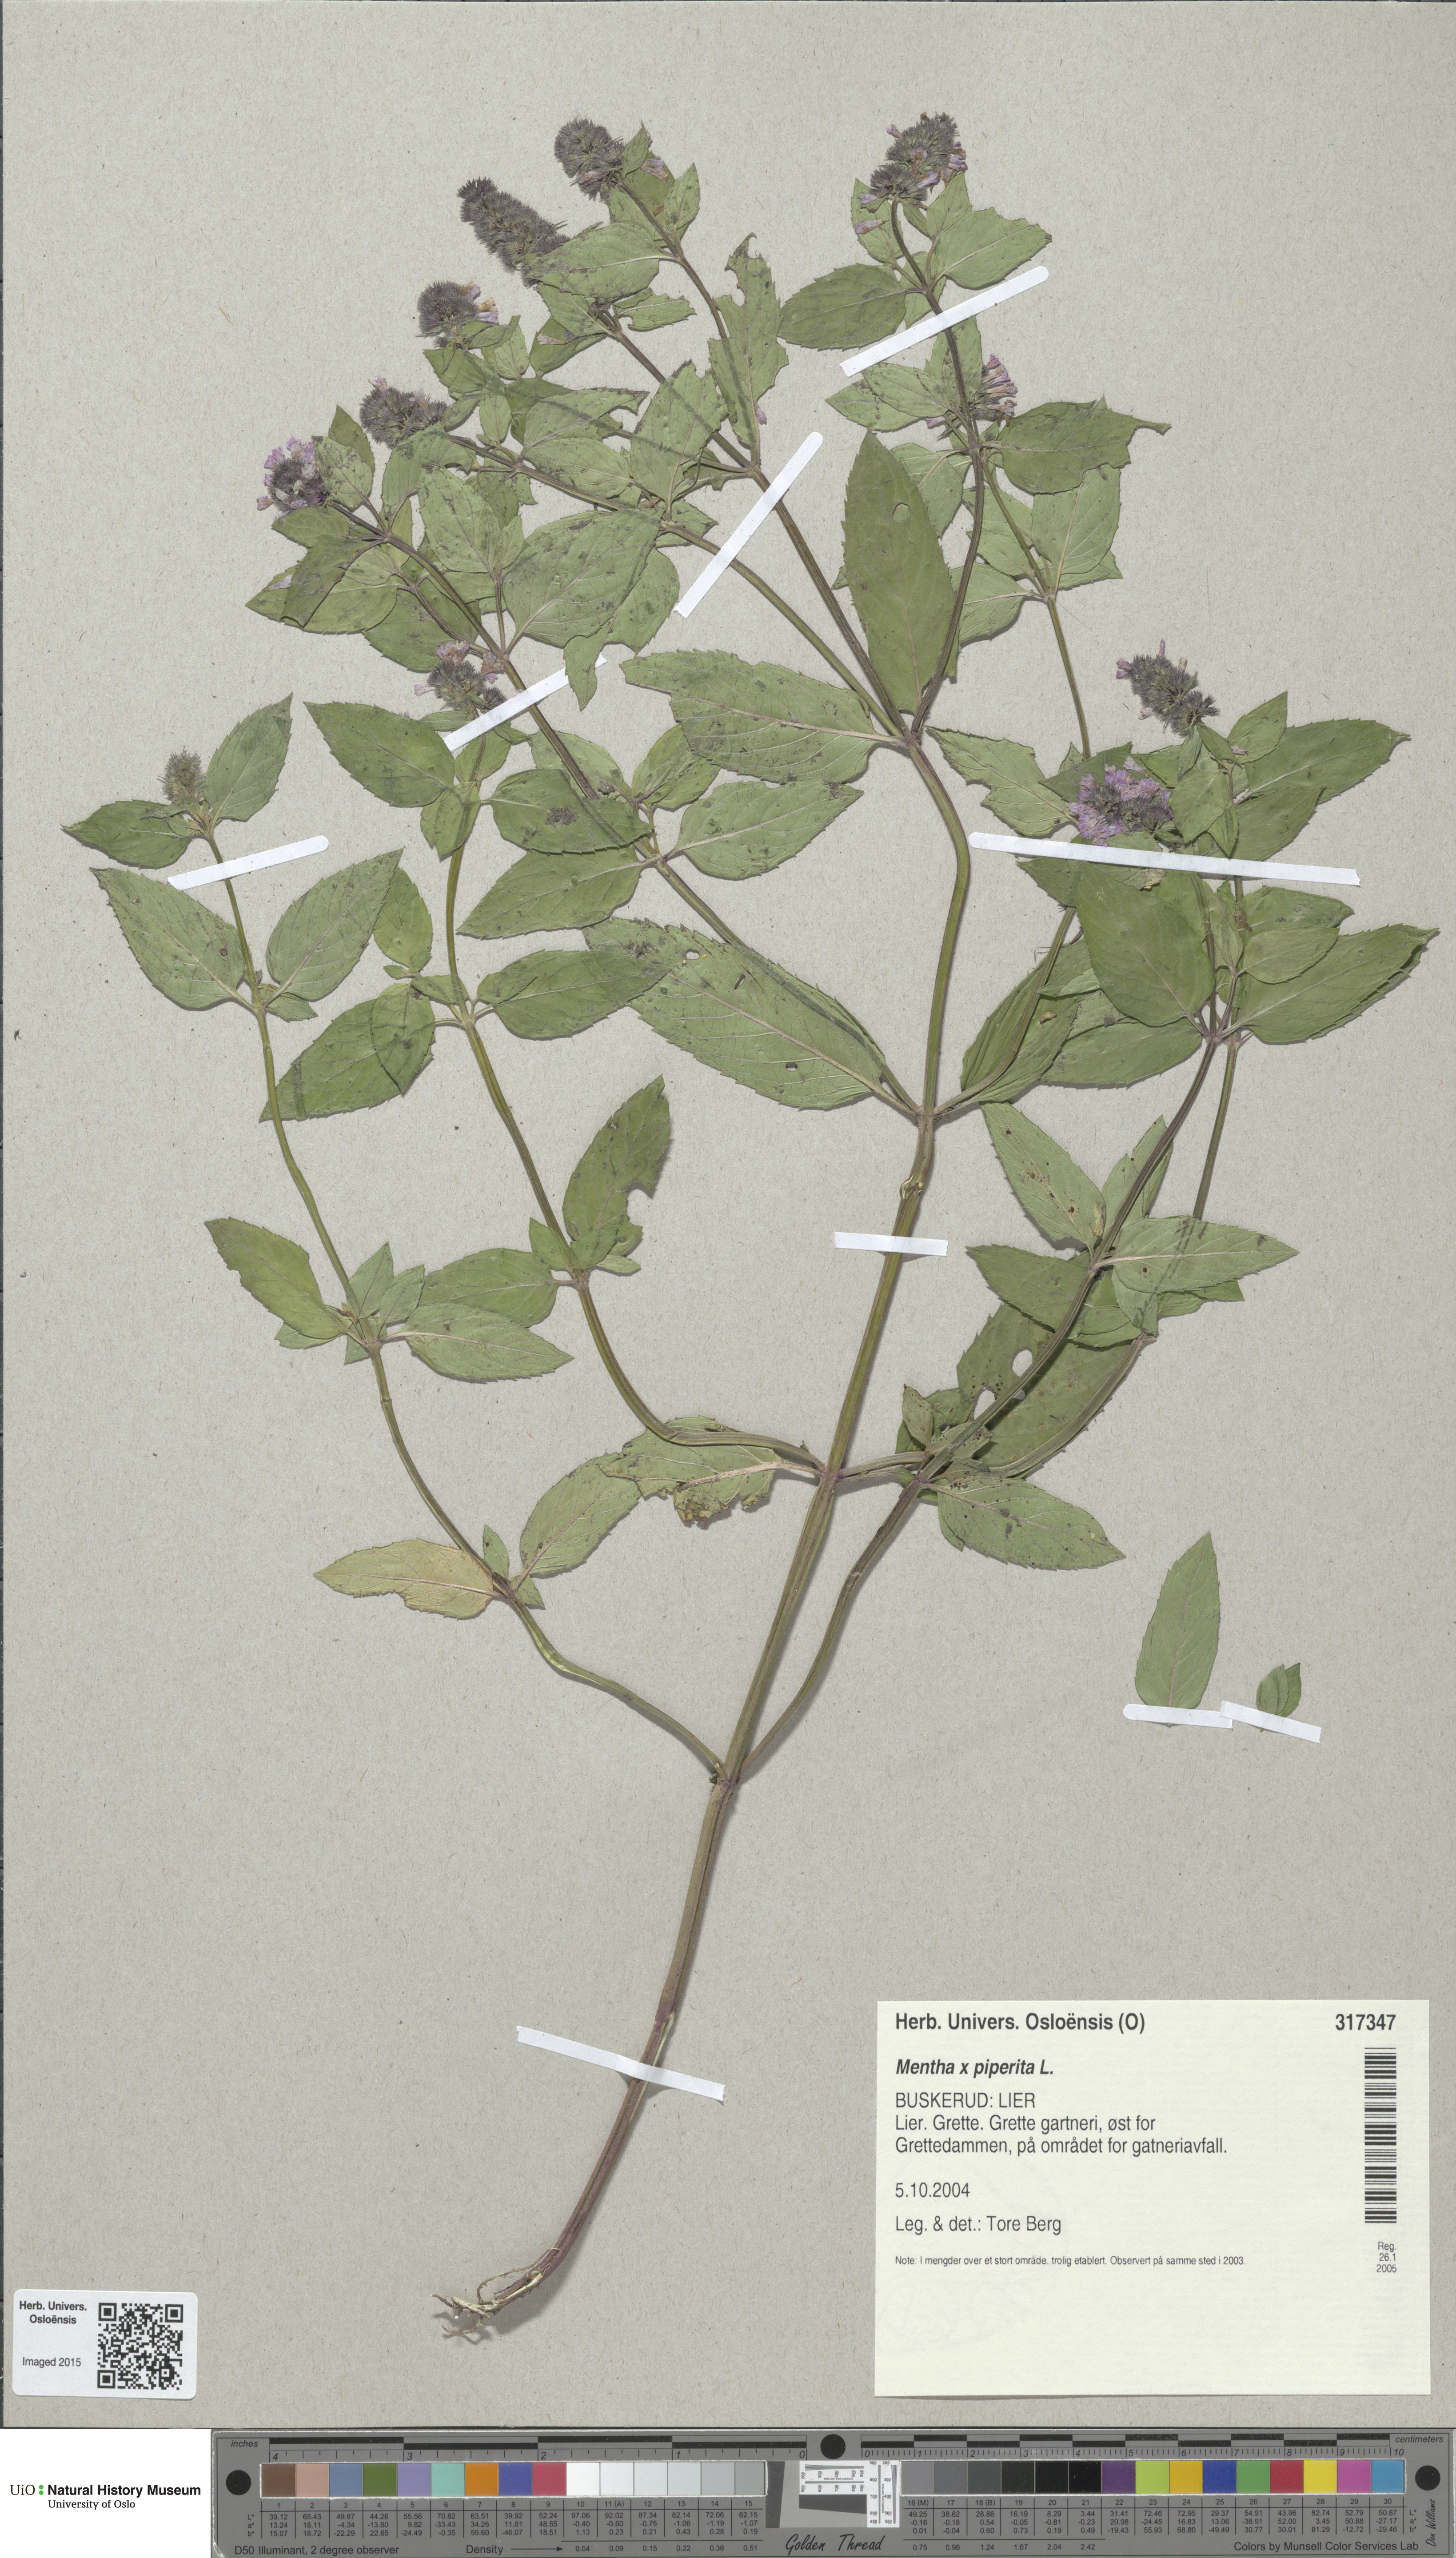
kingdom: Plantae
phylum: Tracheophyta
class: Magnoliopsida
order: Lamiales
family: Lamiaceae
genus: Mentha
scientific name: Mentha piperita
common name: Peppermint
